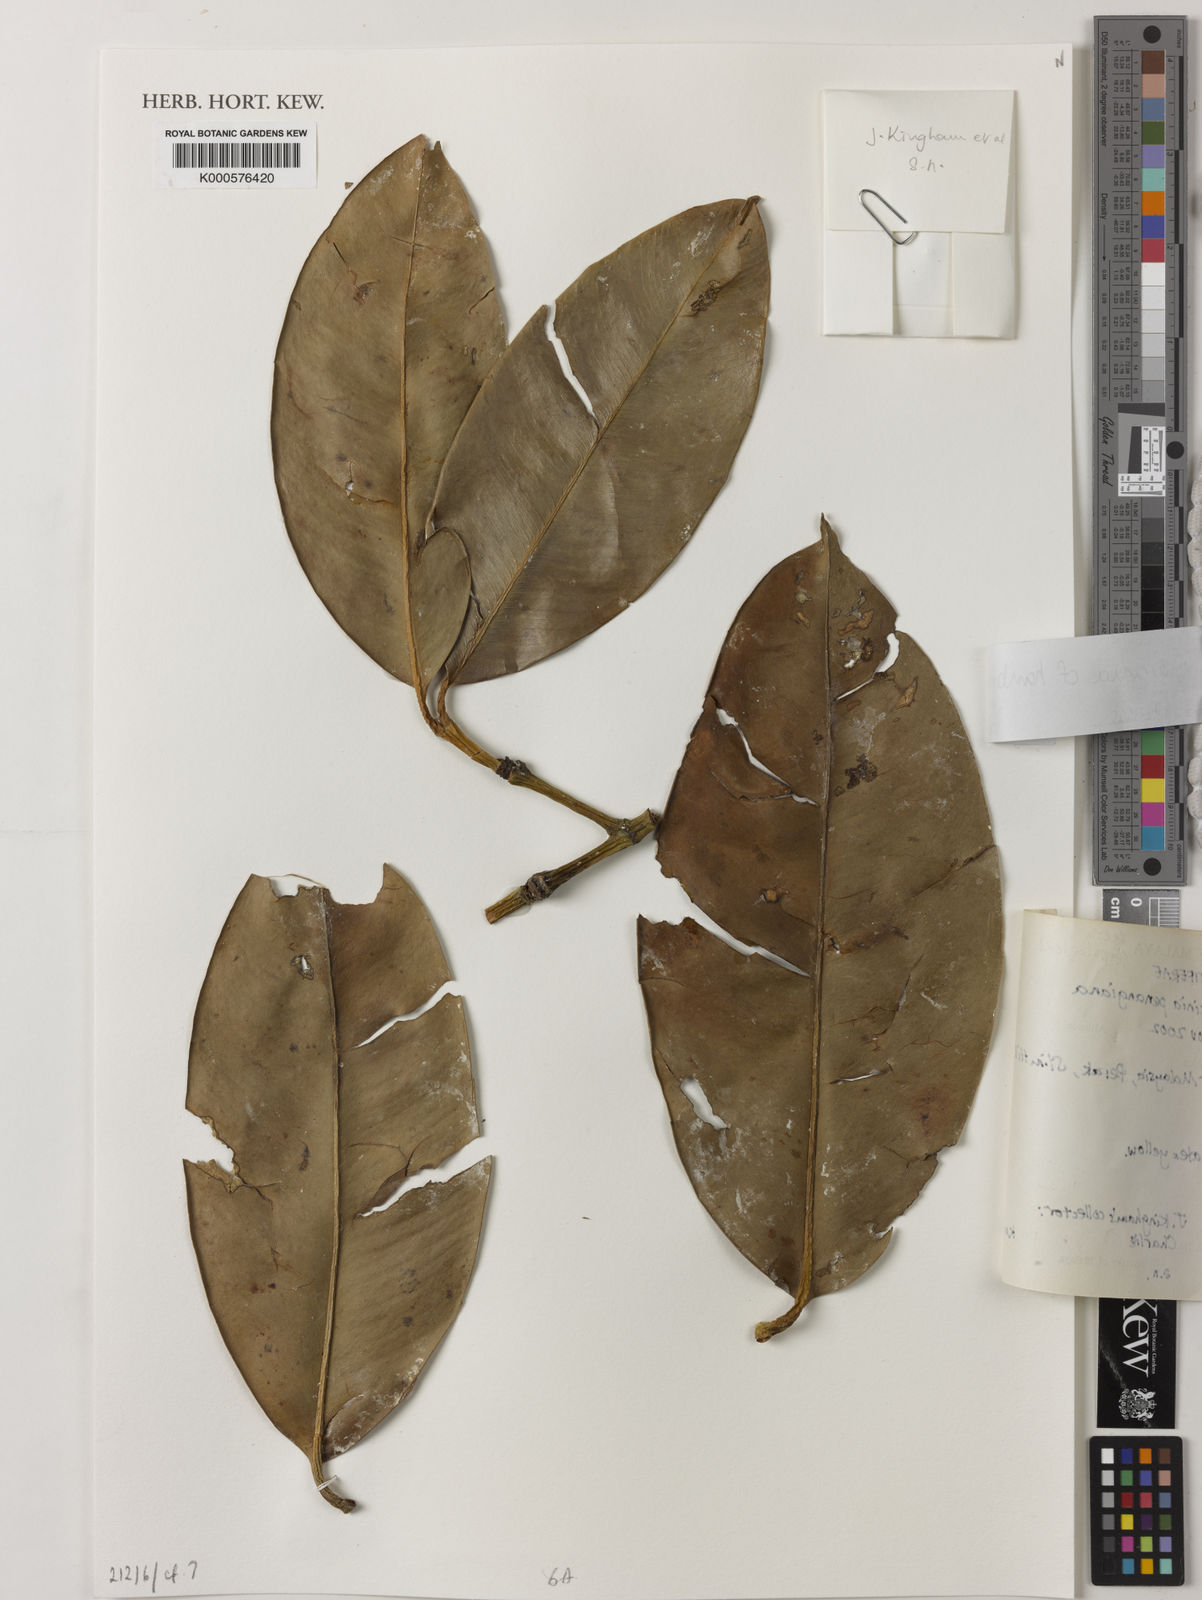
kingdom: Plantae
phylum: Tracheophyta
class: Magnoliopsida
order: Malpighiales
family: Clusiaceae
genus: Garcinia
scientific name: Garcinia hombroniana
